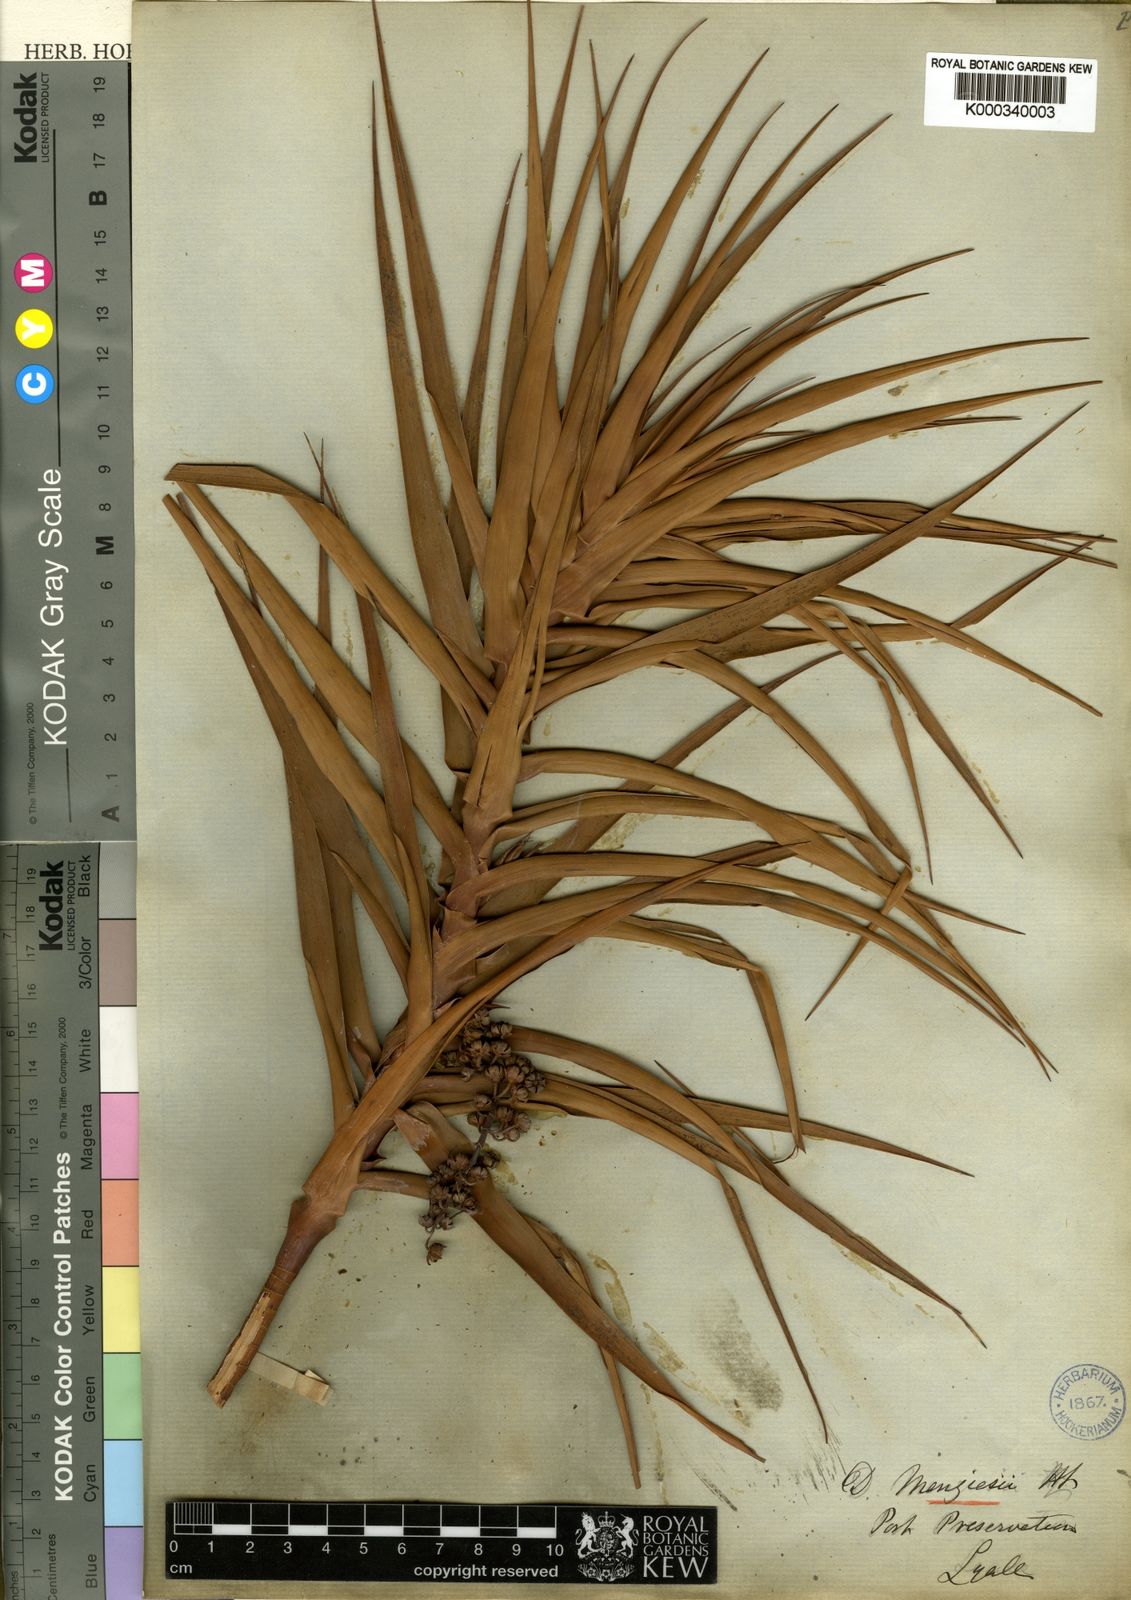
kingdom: Plantae
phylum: Tracheophyta
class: Magnoliopsida
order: Ericales
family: Ericaceae
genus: Dracophyllum
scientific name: Dracophyllum menziesii
